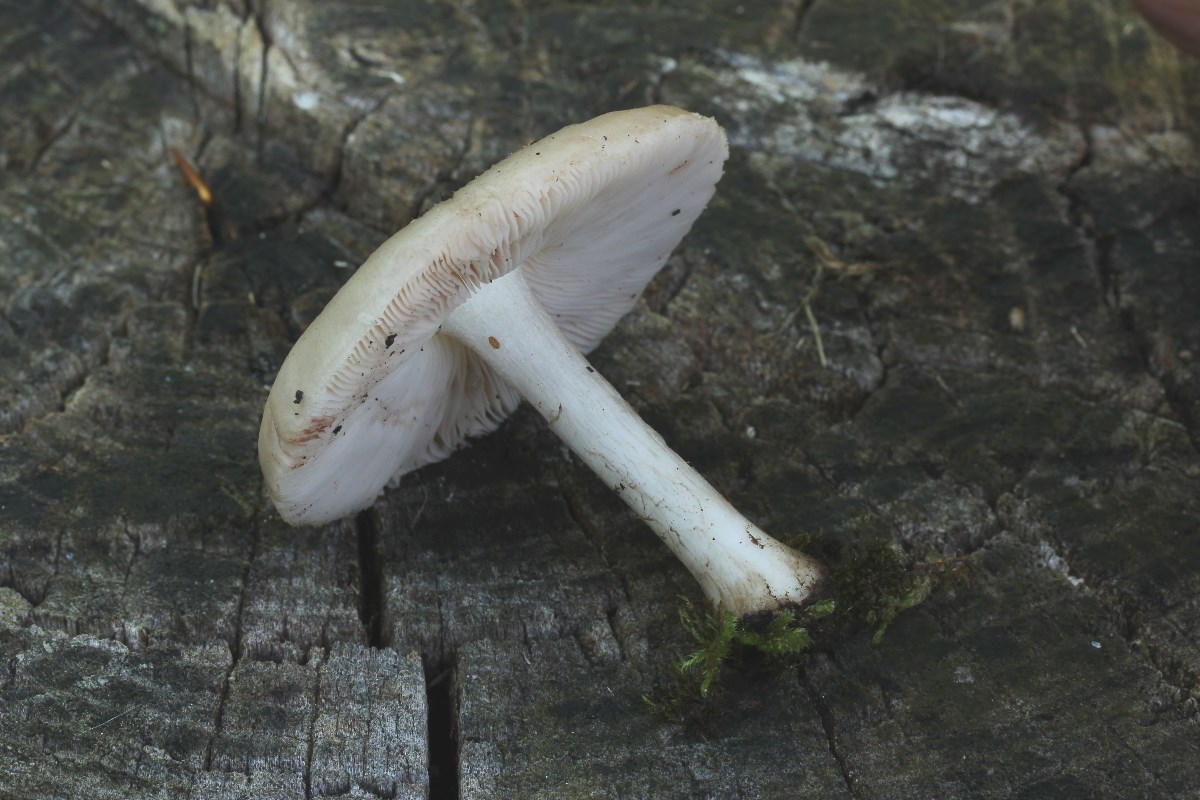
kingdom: Fungi
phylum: Basidiomycota
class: Agaricomycetes
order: Agaricales
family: Pluteaceae
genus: Pluteus
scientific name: Pluteus salicinus
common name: stiv skærmhat
